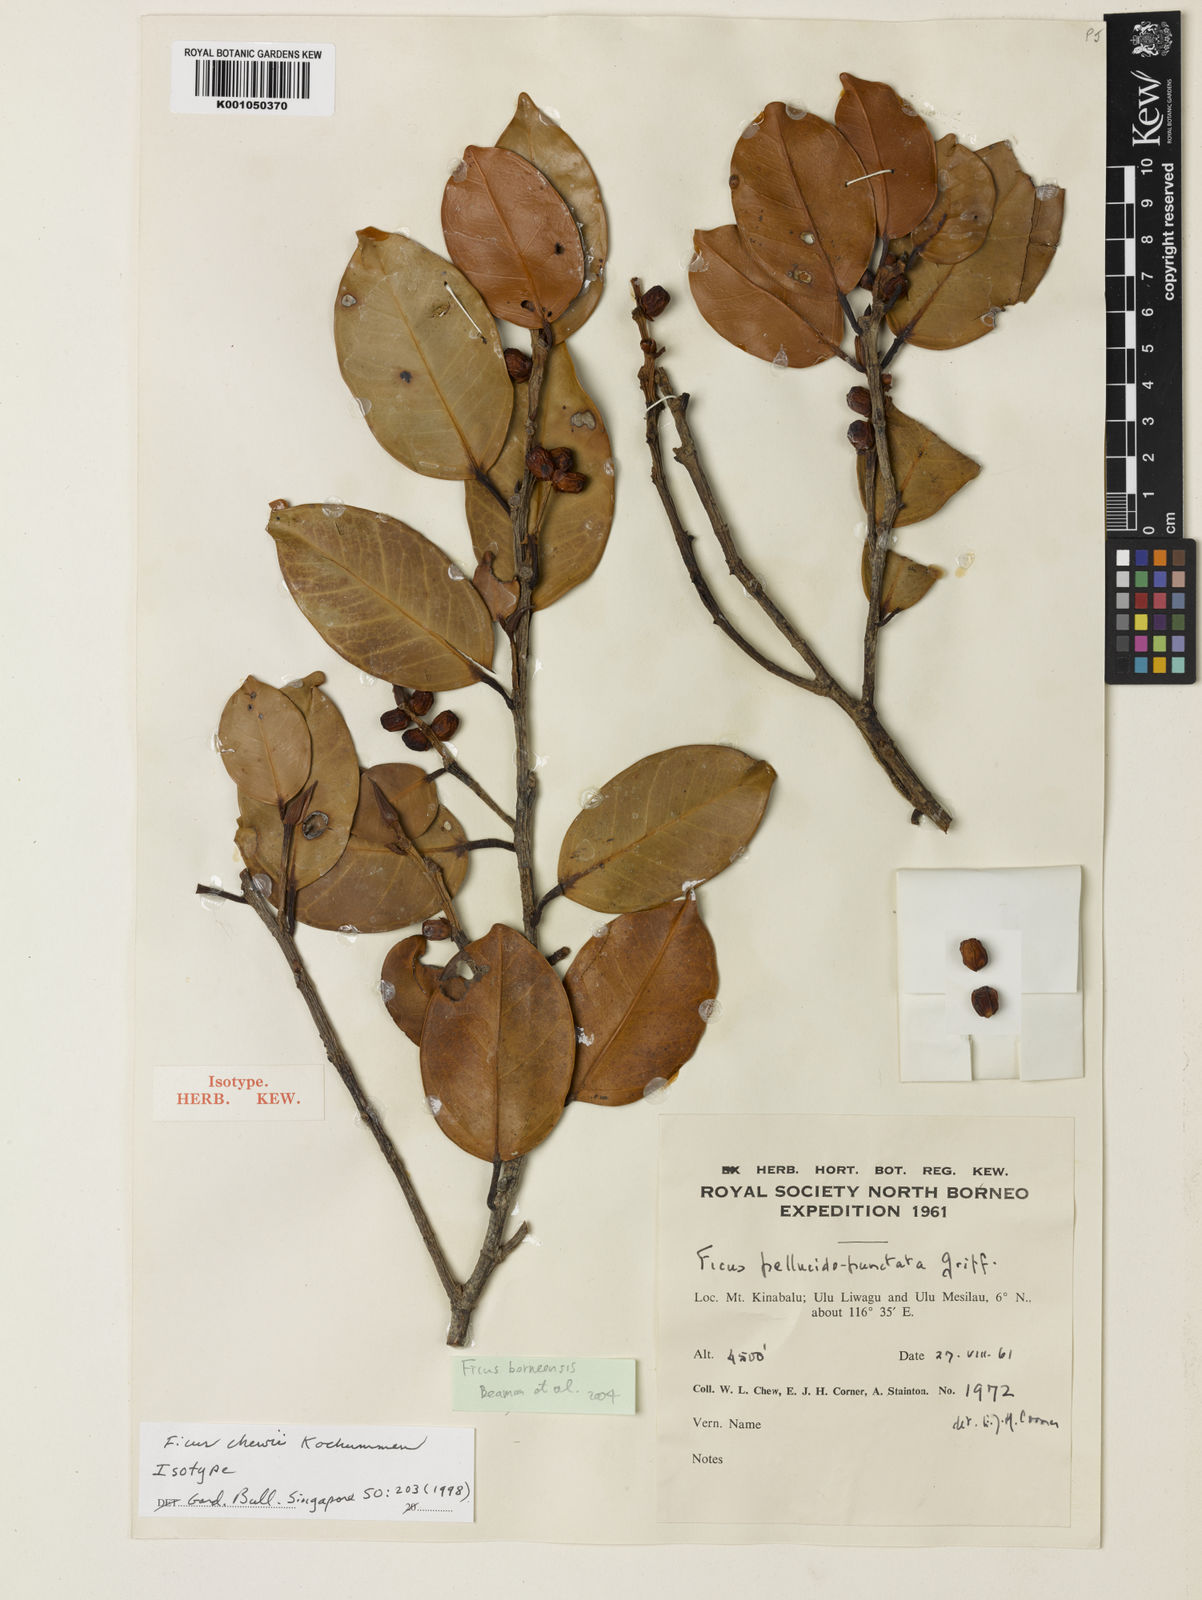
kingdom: Plantae
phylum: Tracheophyta
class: Magnoliopsida
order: Rosales
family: Moraceae
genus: Ficus
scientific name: Ficus borneensis
